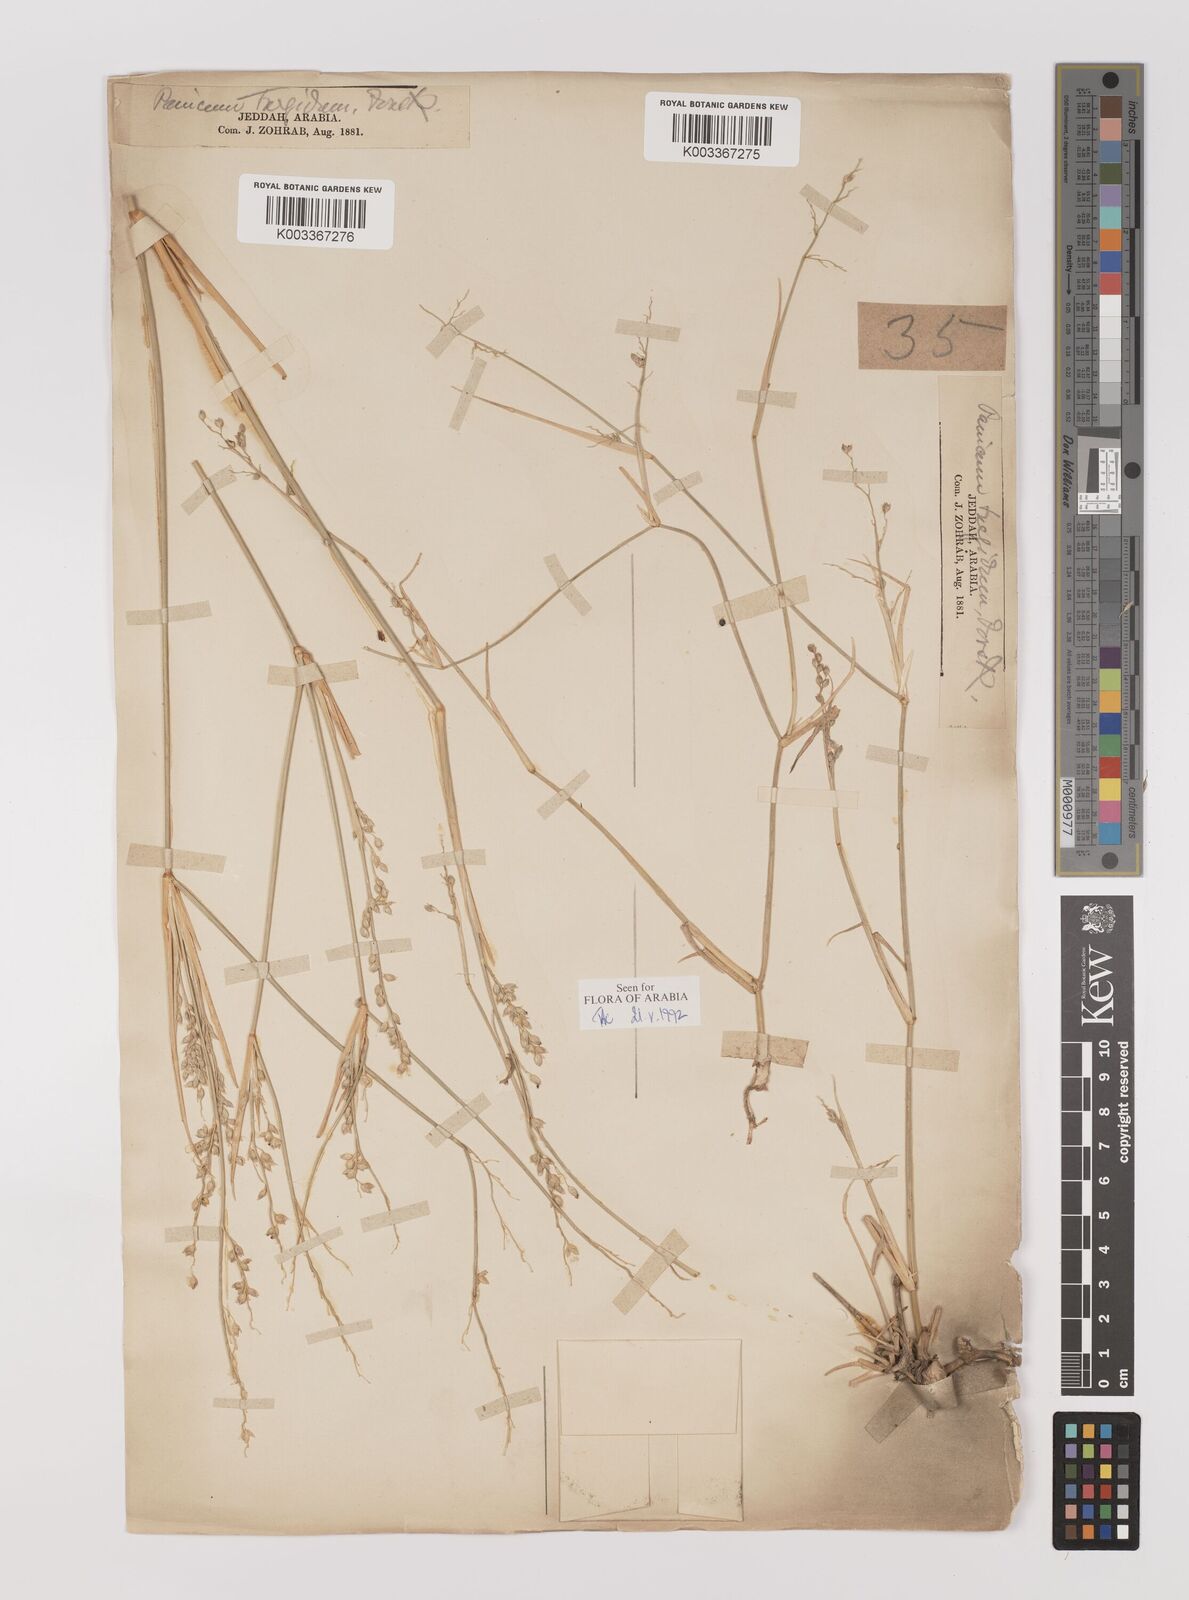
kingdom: Plantae
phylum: Tracheophyta
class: Liliopsida
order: Poales
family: Poaceae
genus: Panicum
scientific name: Panicum turgidum
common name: Desert grass
